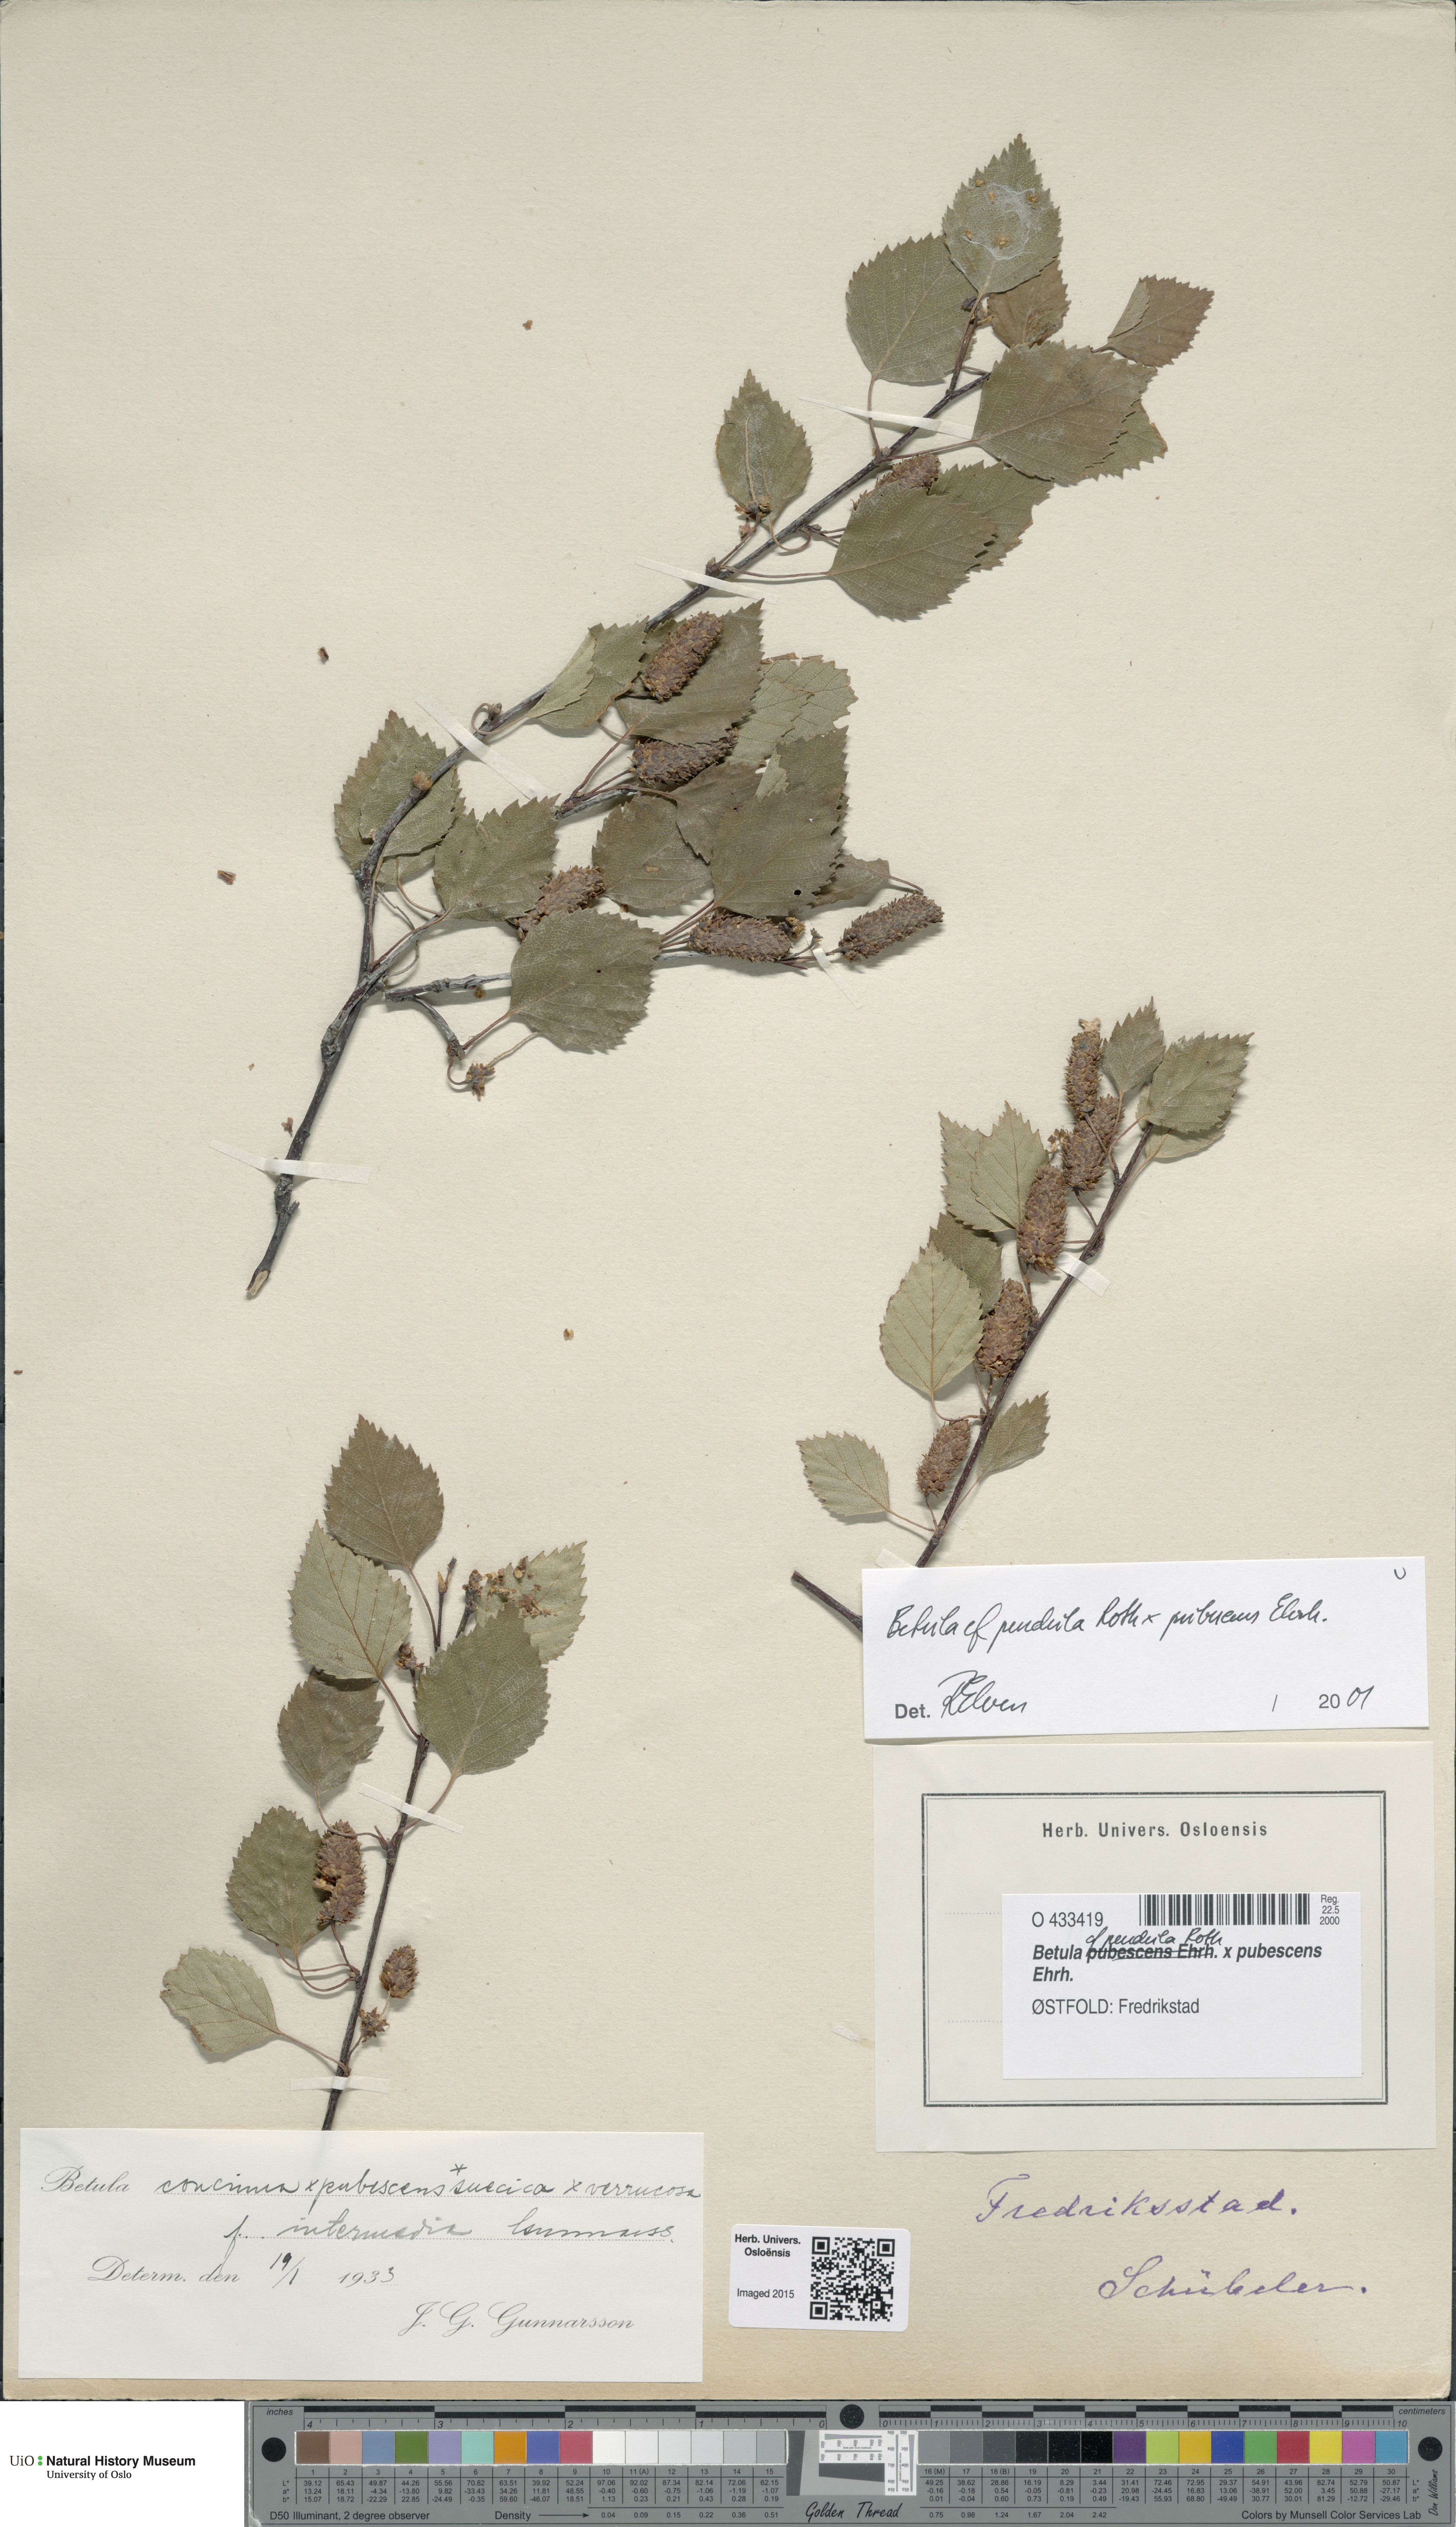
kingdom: Plantae
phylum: Tracheophyta
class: Magnoliopsida
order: Fagales
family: Betulaceae
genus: Betula
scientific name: Betula
